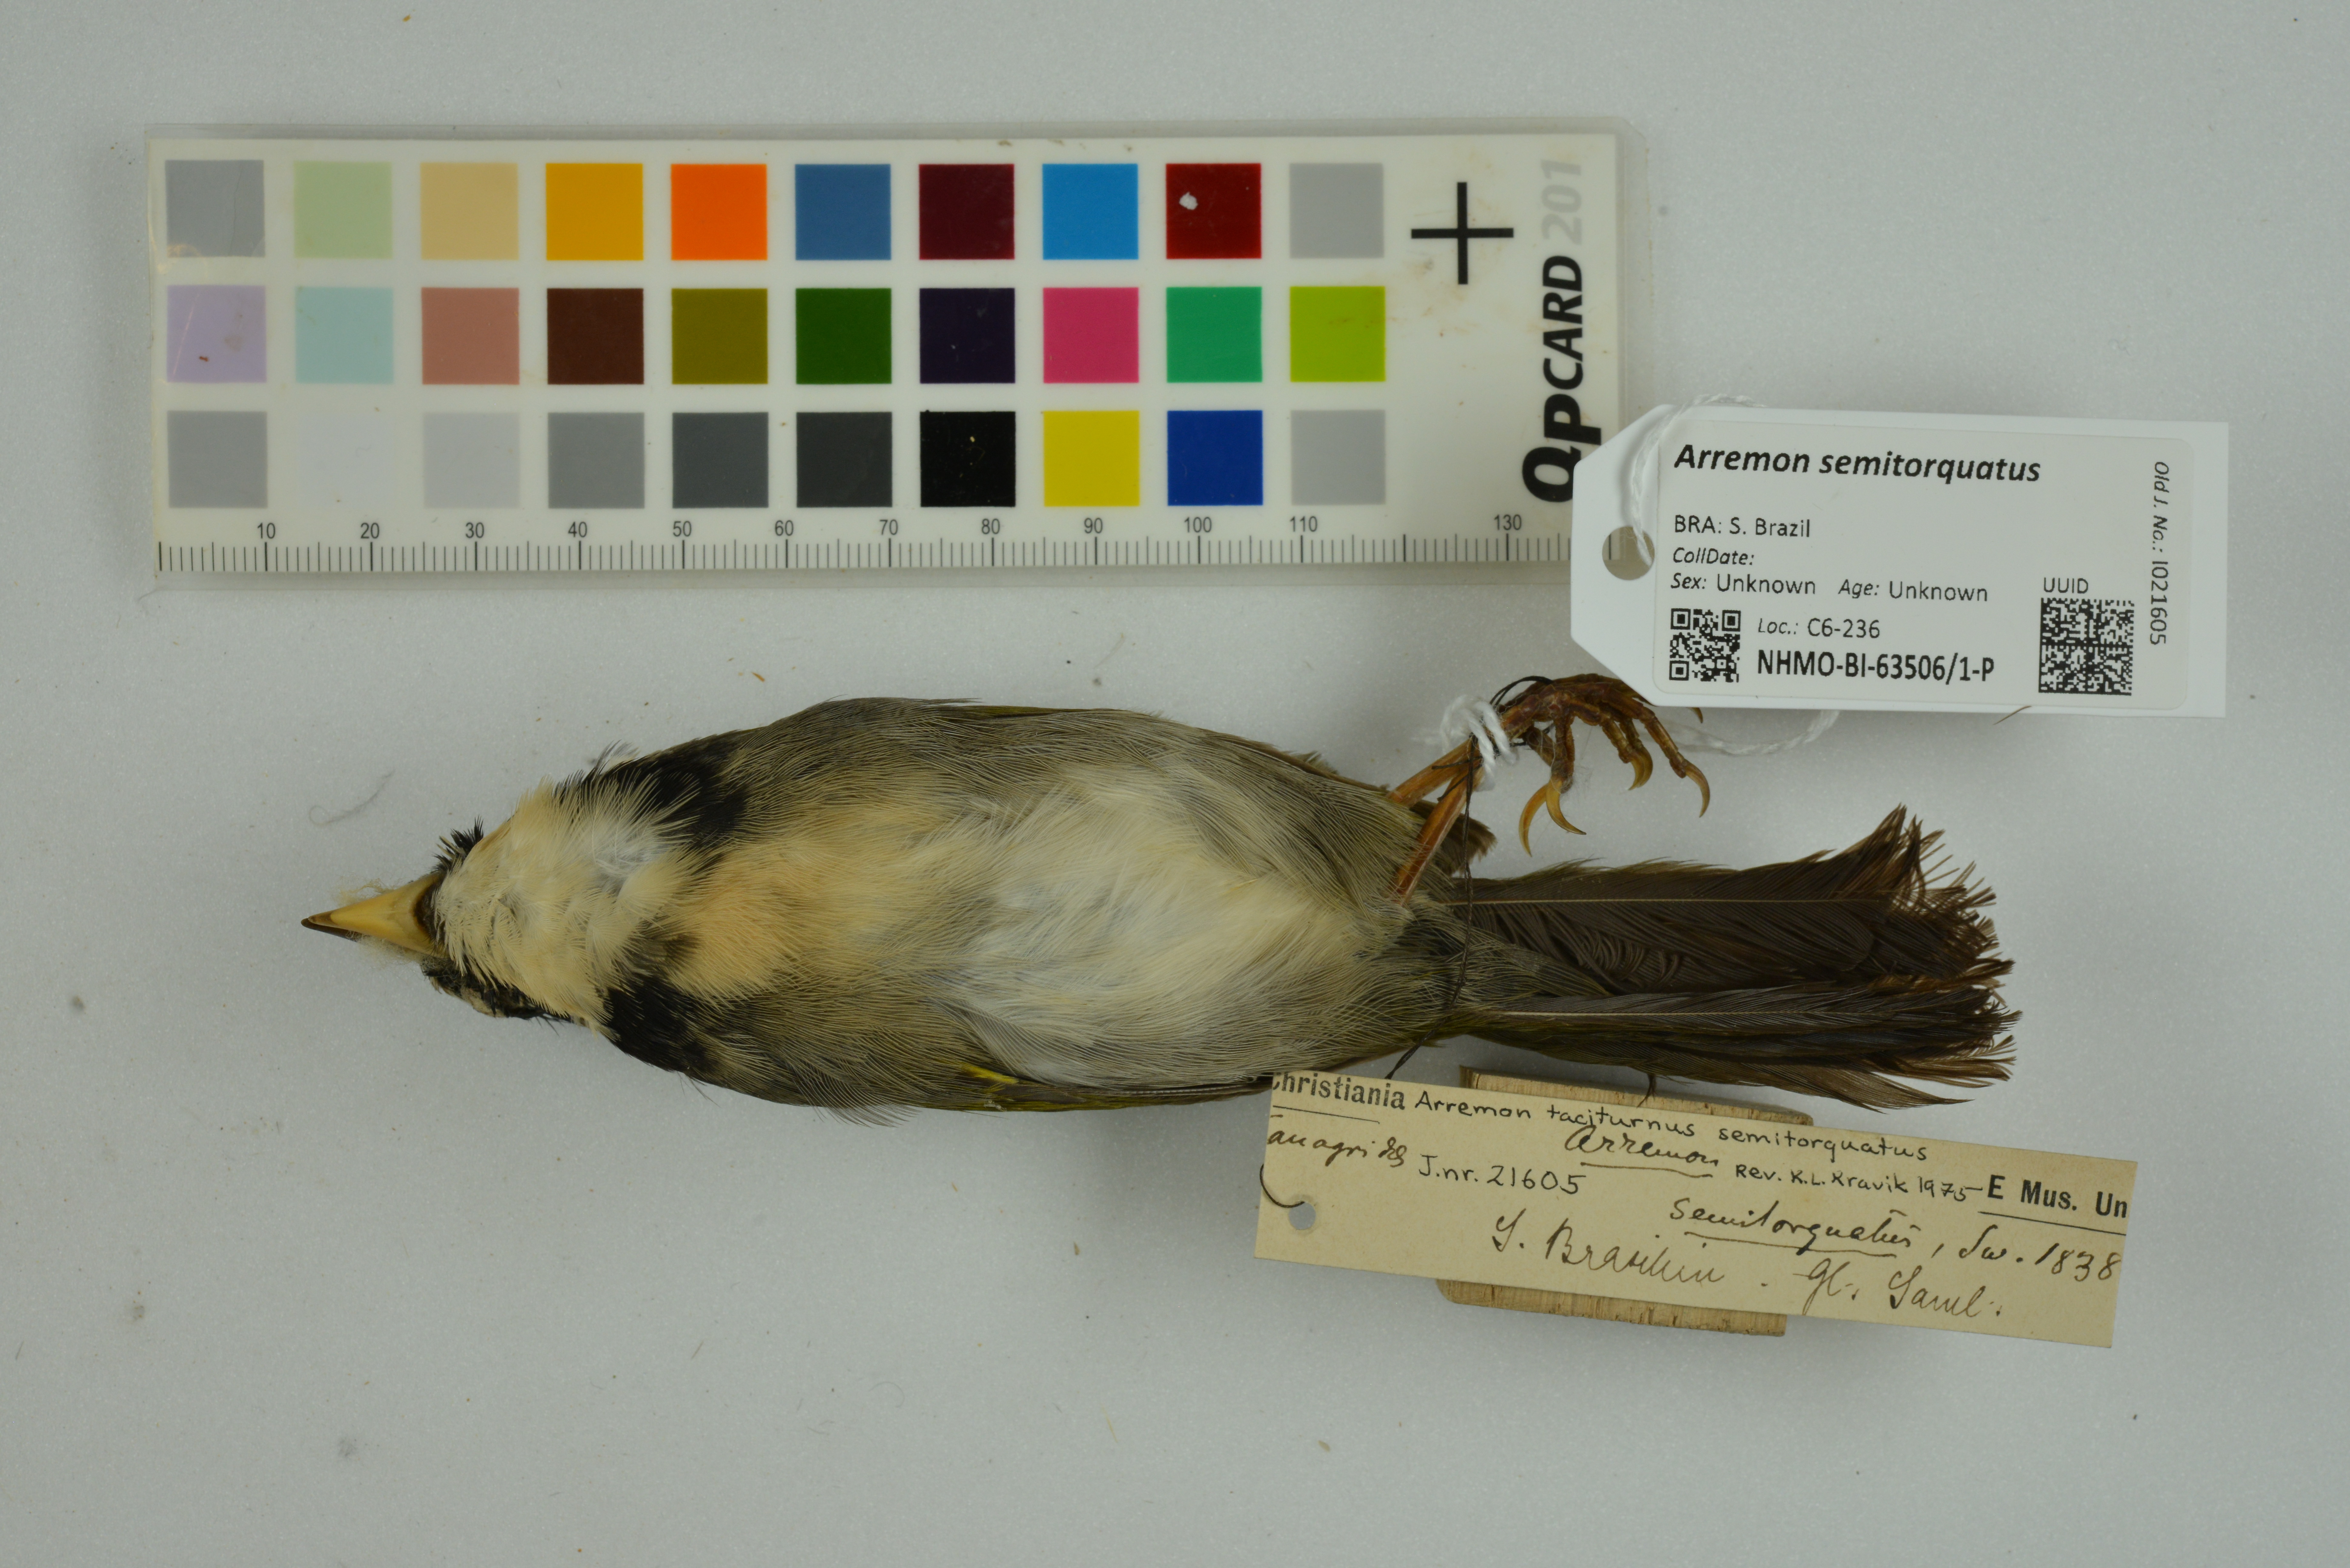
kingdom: Animalia
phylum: Chordata
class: Aves
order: Passeriformes
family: Passerellidae
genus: Arremon
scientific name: Arremon semitorquatus
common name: Half-collared sparrow
